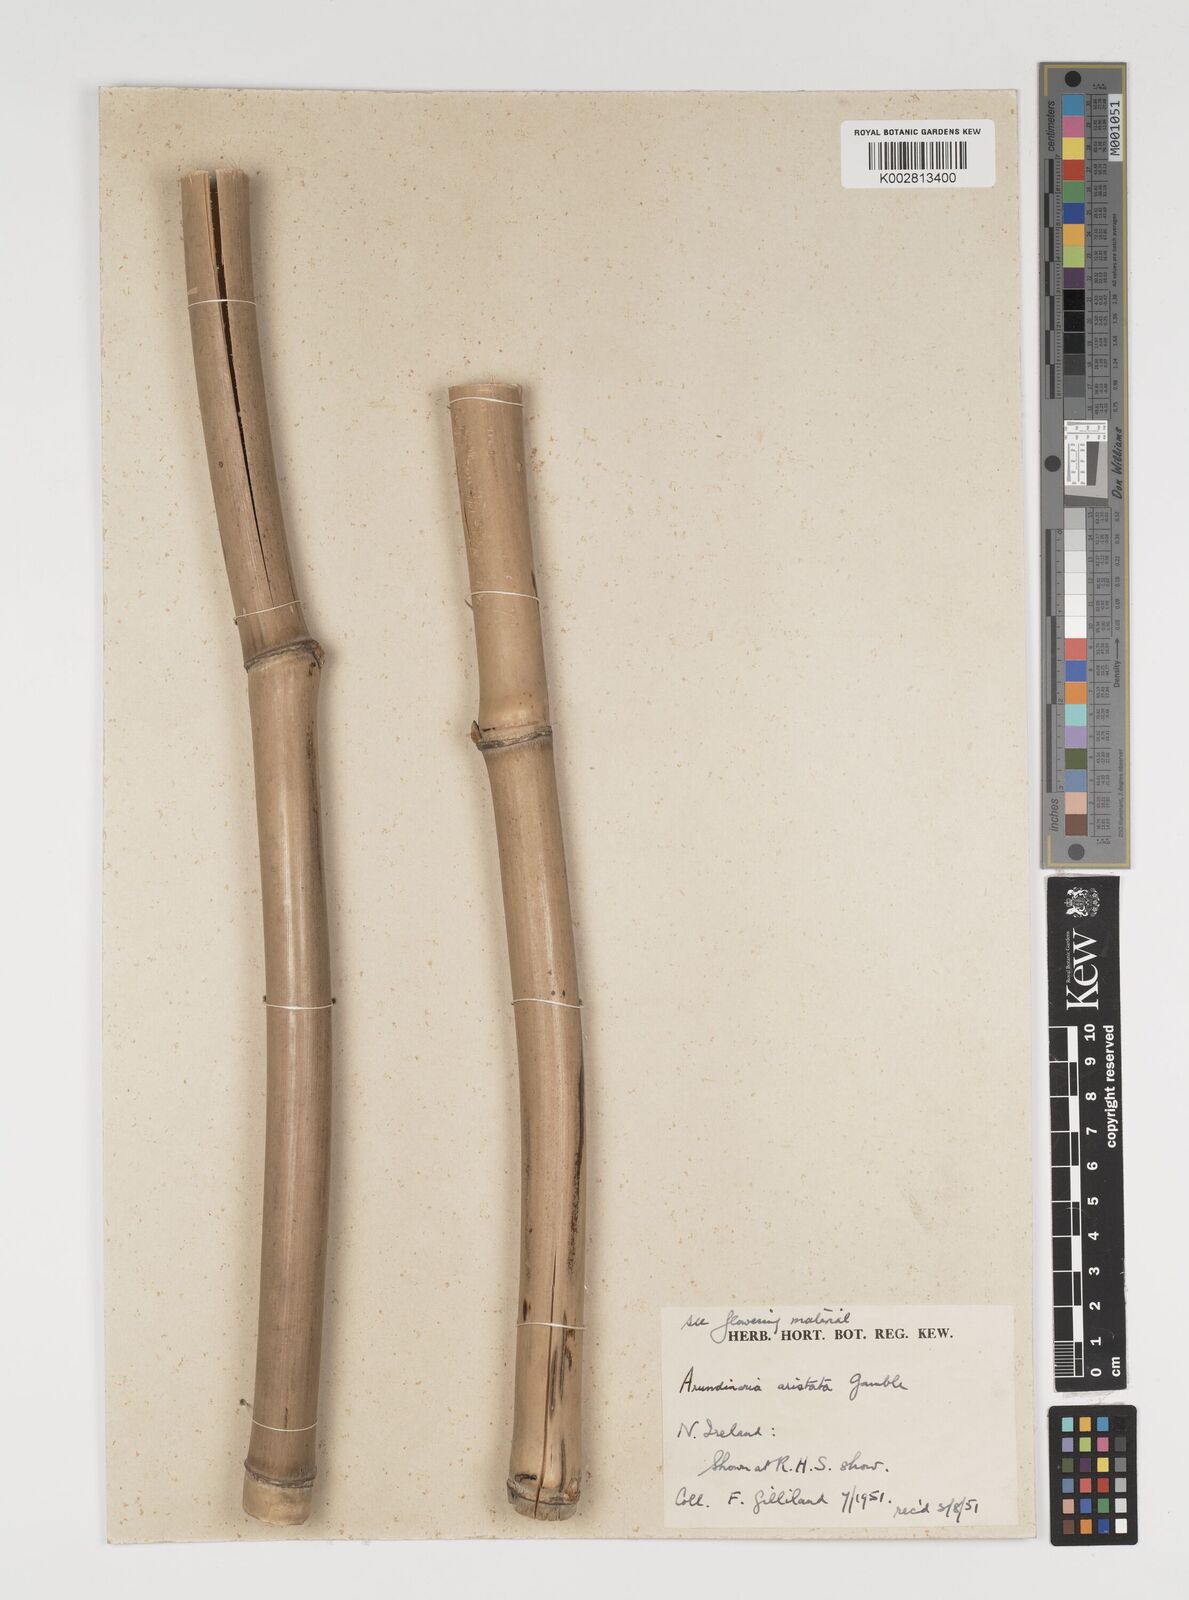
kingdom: Plantae
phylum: Tracheophyta
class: Liliopsida
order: Poales
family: Poaceae
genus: Thamnocalamus
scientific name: Thamnocalamus spathiflorus
